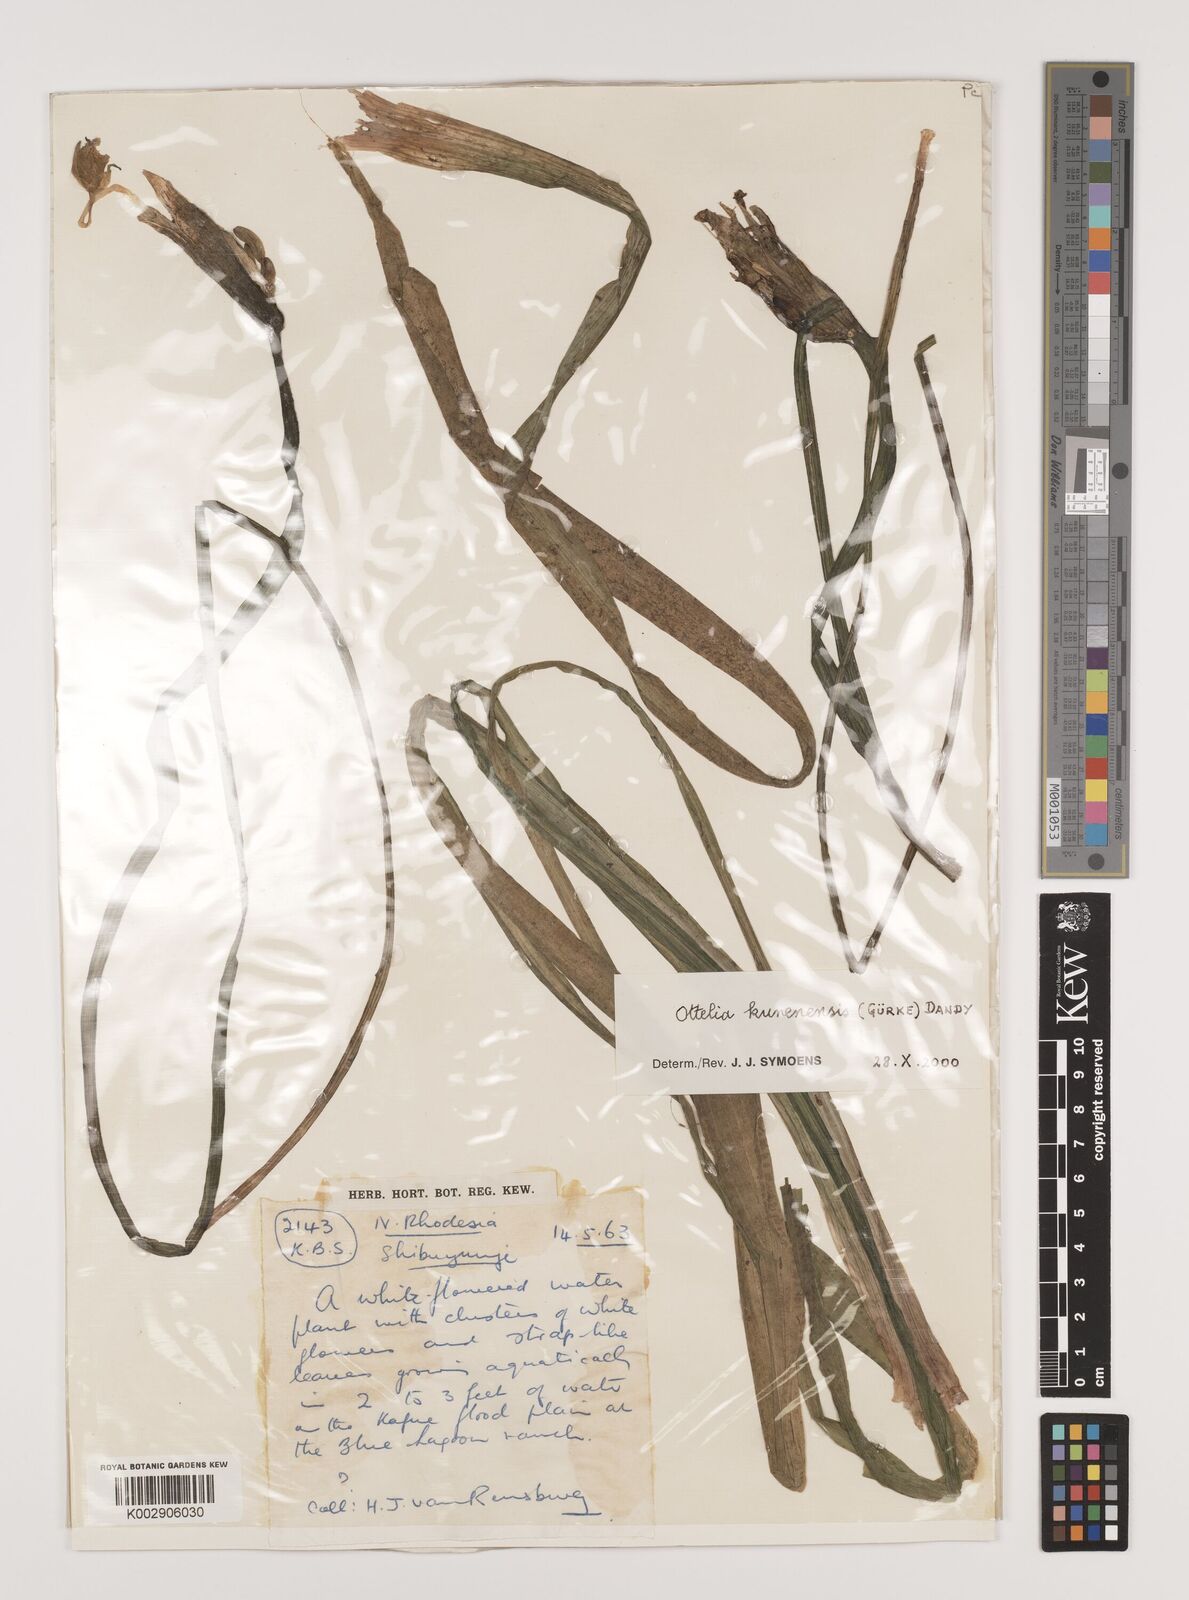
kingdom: Plantae
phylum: Tracheophyta
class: Liliopsida
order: Alismatales
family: Hydrocharitaceae
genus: Ottelia
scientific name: Ottelia kunenensis
